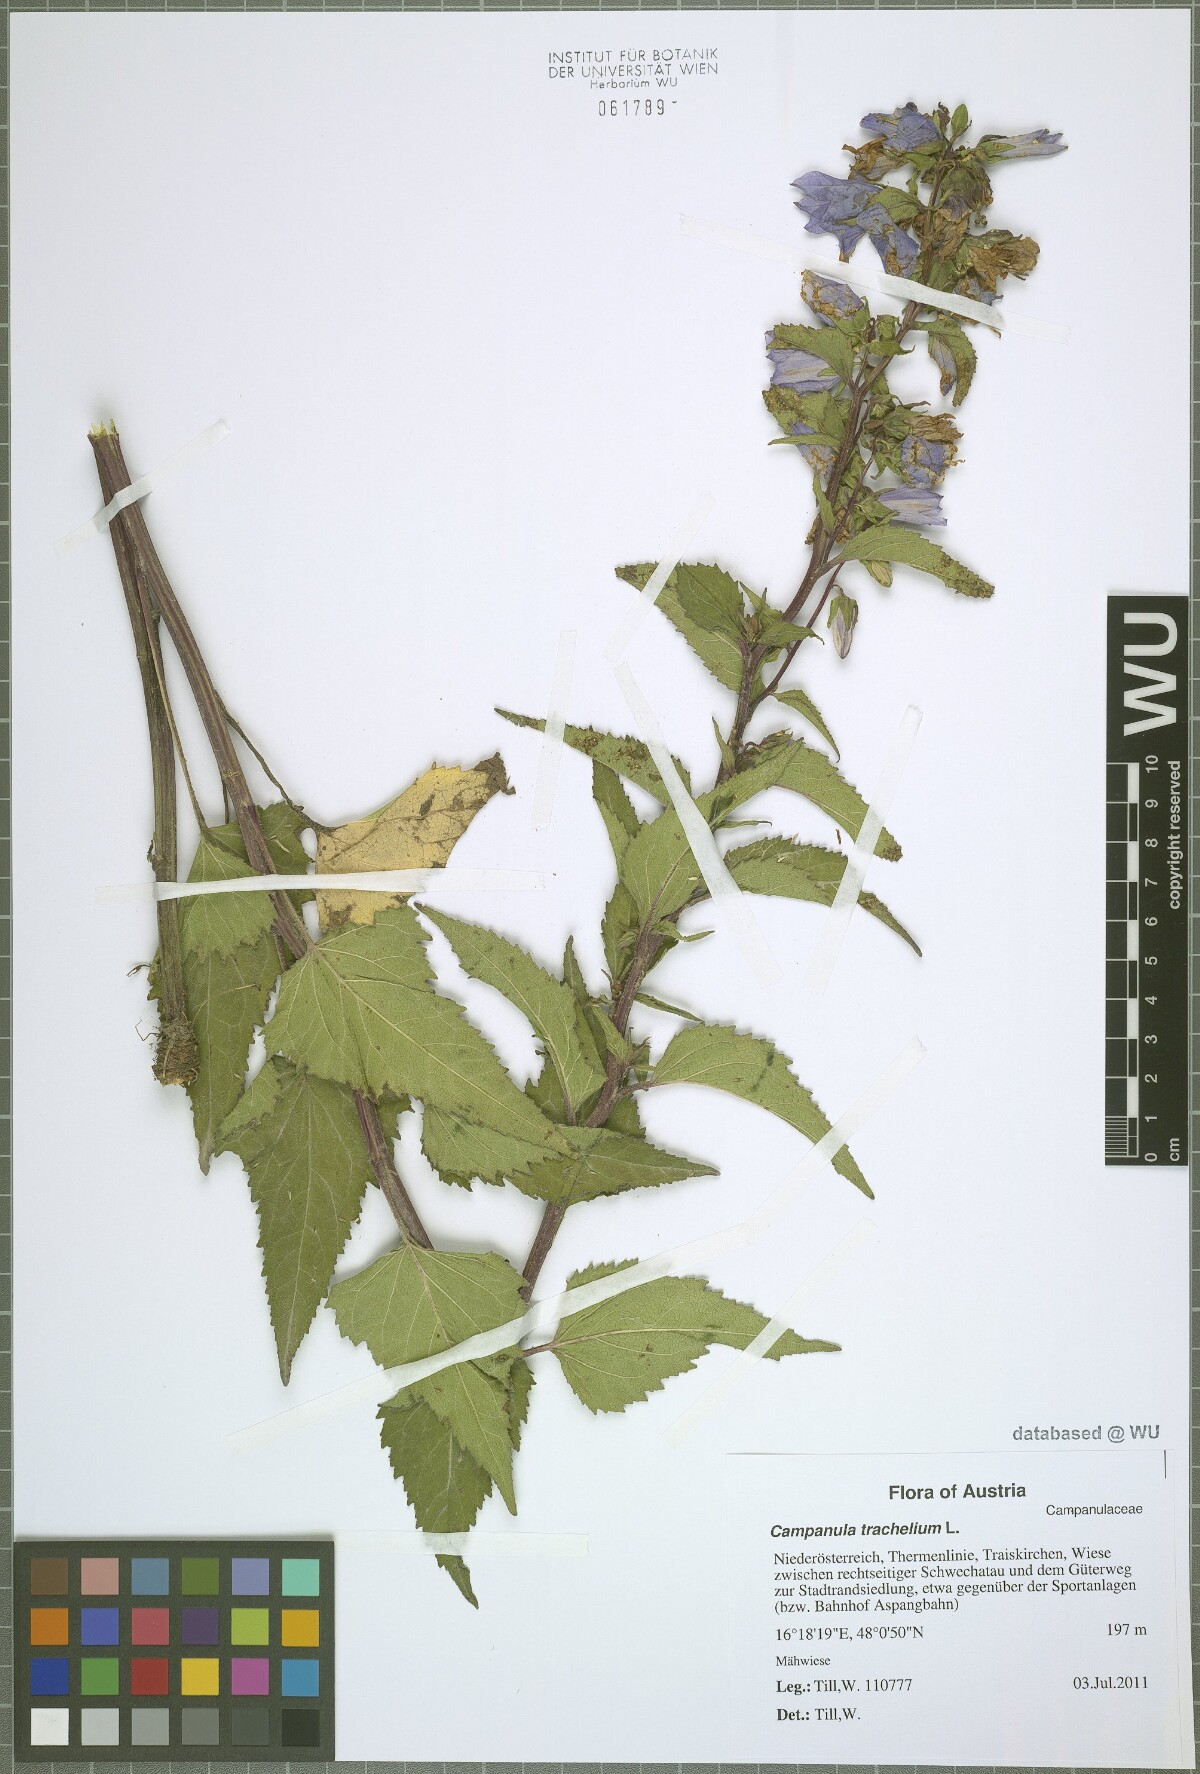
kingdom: Plantae
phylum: Tracheophyta
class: Magnoliopsida
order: Asterales
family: Campanulaceae
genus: Campanula
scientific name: Campanula trachelium
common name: Nettle-leaved bellflower
